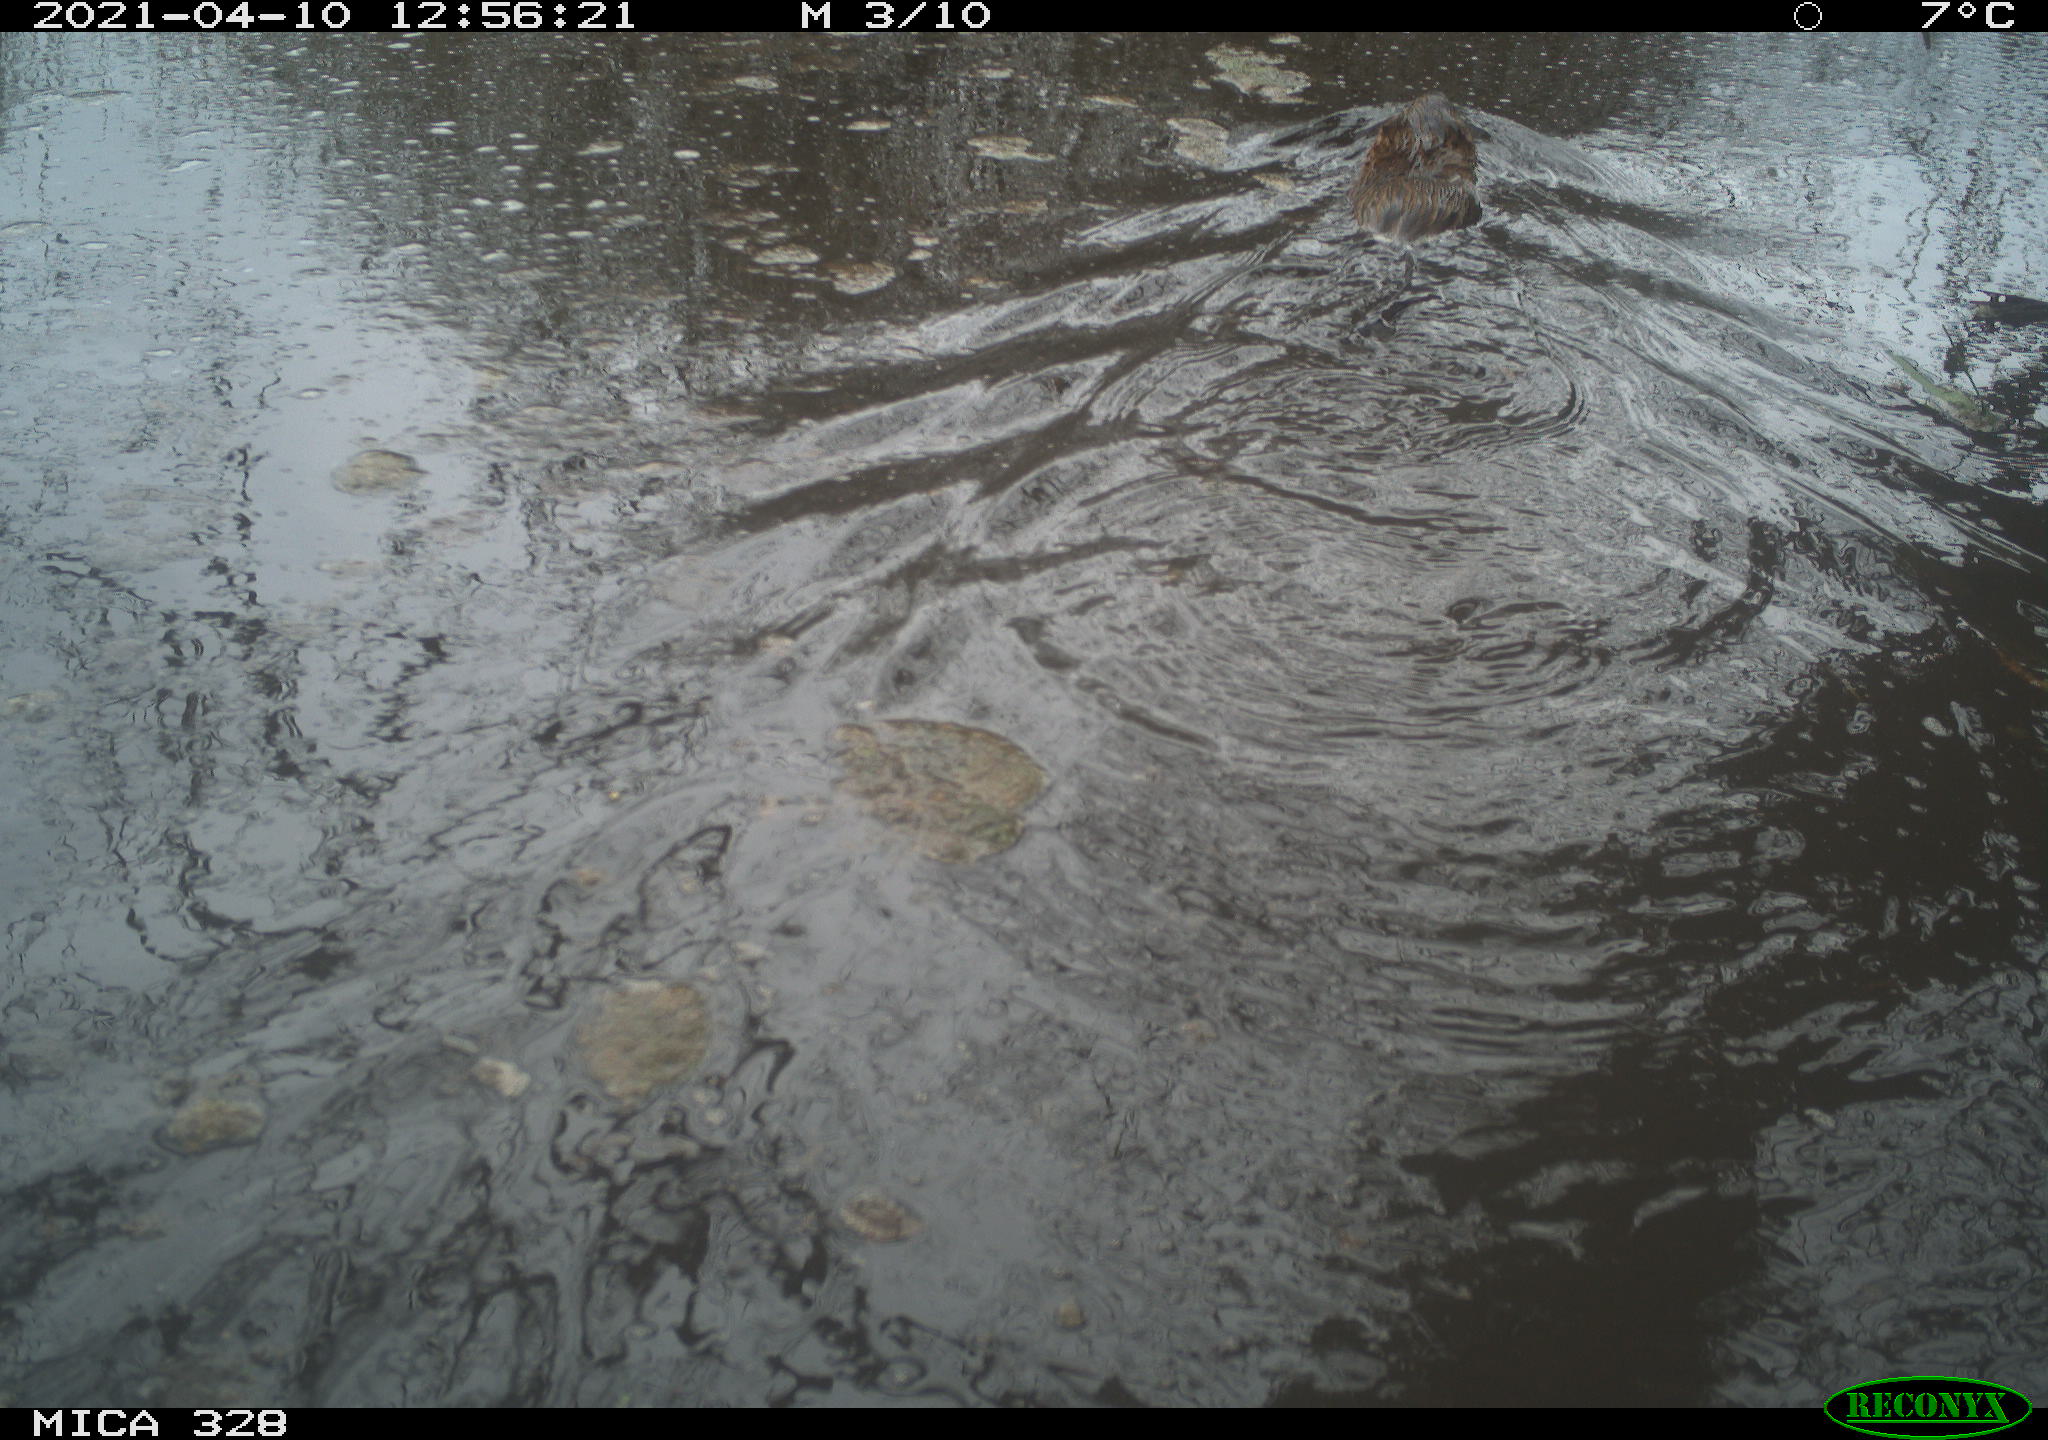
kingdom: Animalia
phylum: Chordata
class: Mammalia
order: Rodentia
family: Cricetidae
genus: Ondatra
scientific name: Ondatra zibethicus
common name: Muskrat
